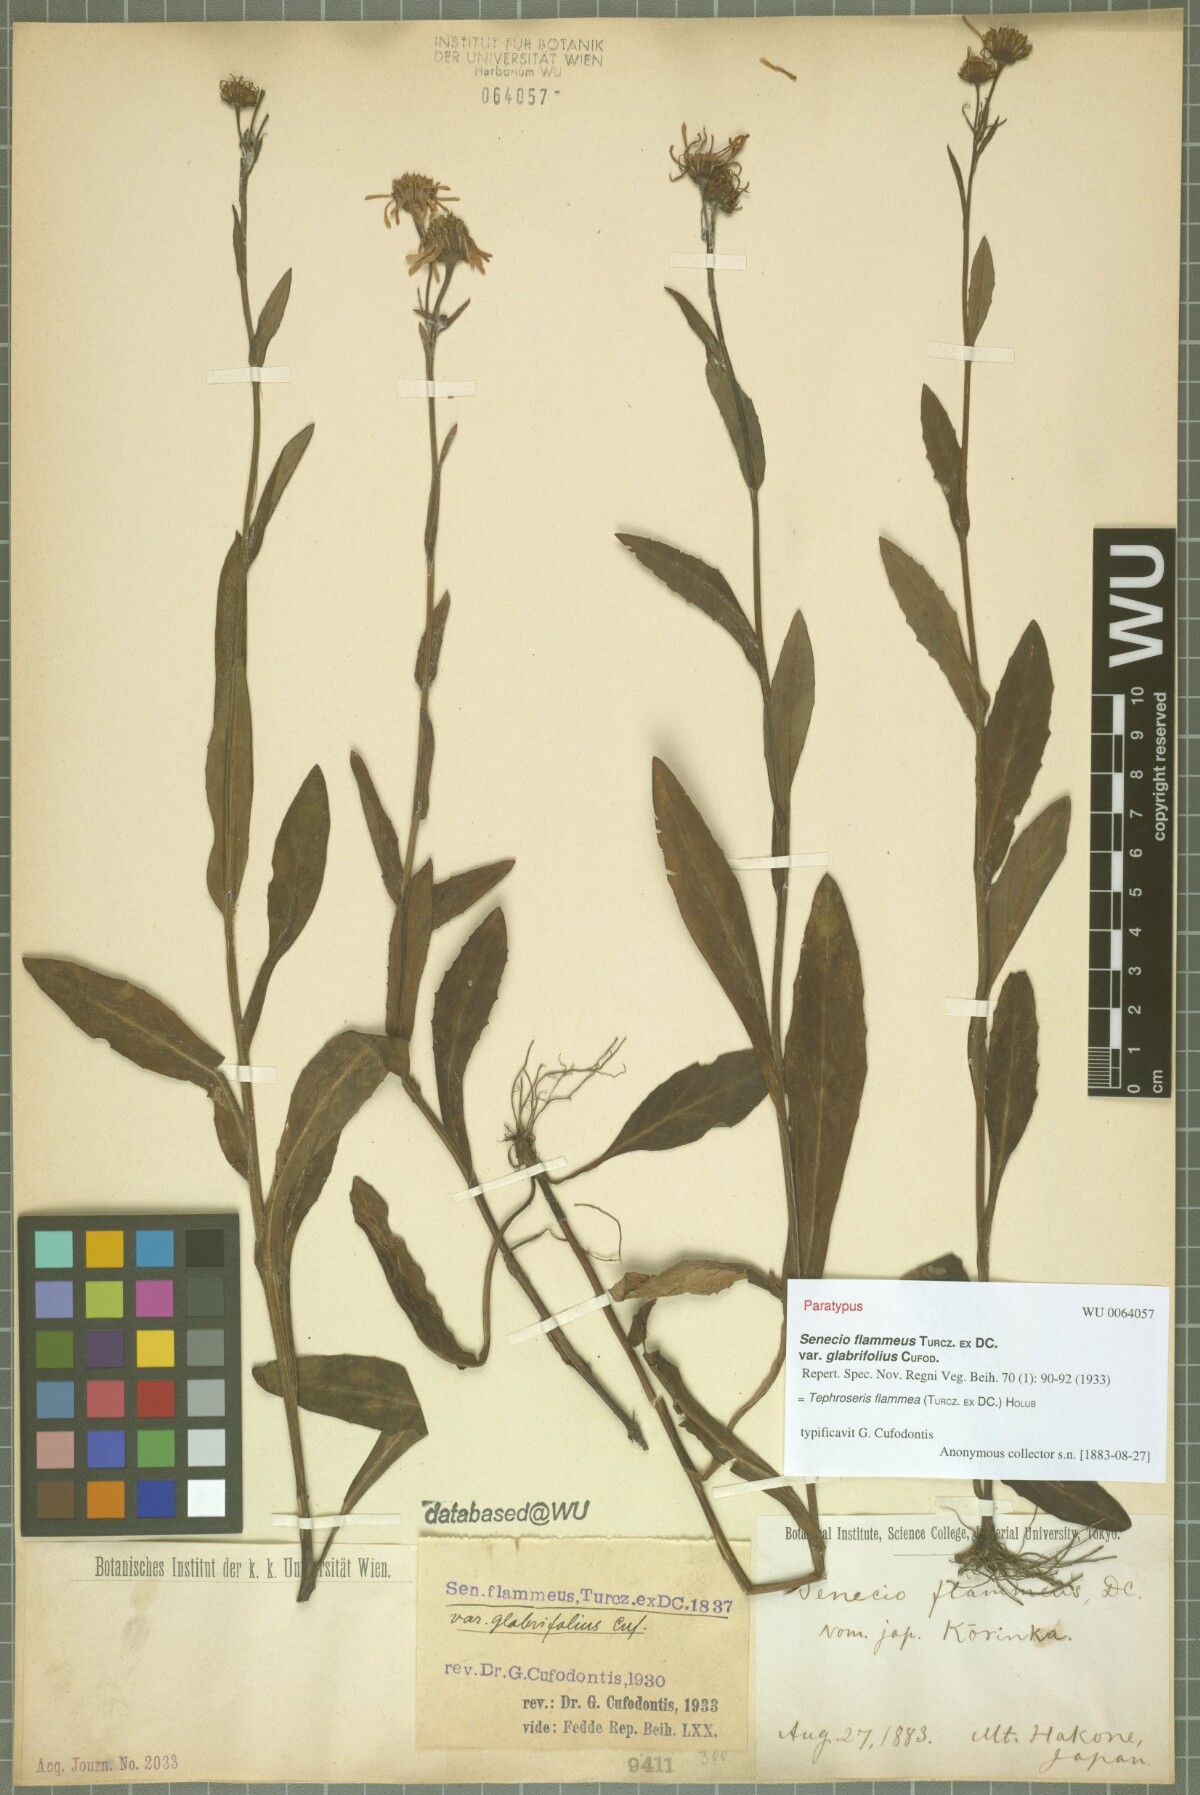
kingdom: Plantae
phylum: Tracheophyta
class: Magnoliopsida
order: Asterales
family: Asteraceae
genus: Tephroseris
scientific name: Tephroseris flammea
